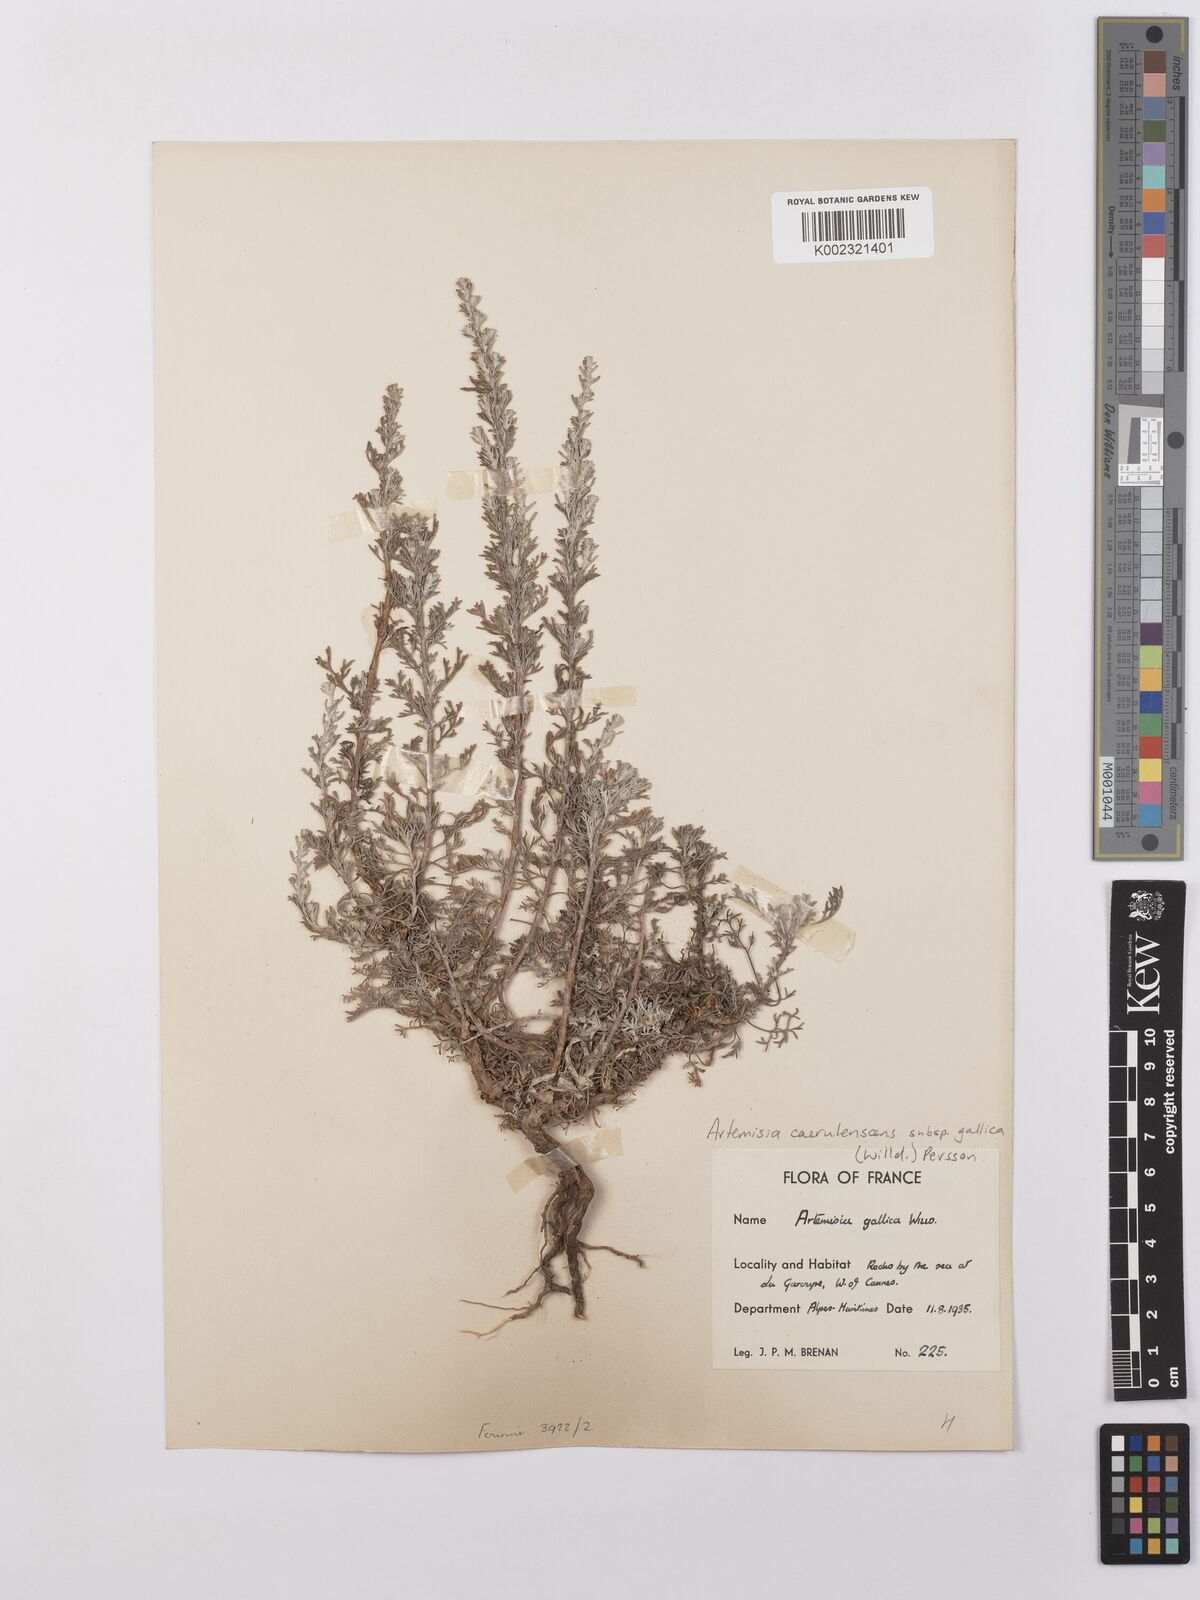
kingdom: Plantae
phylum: Tracheophyta
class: Magnoliopsida
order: Asterales
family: Asteraceae
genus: Artemisia
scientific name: Artemisia caerulescens
